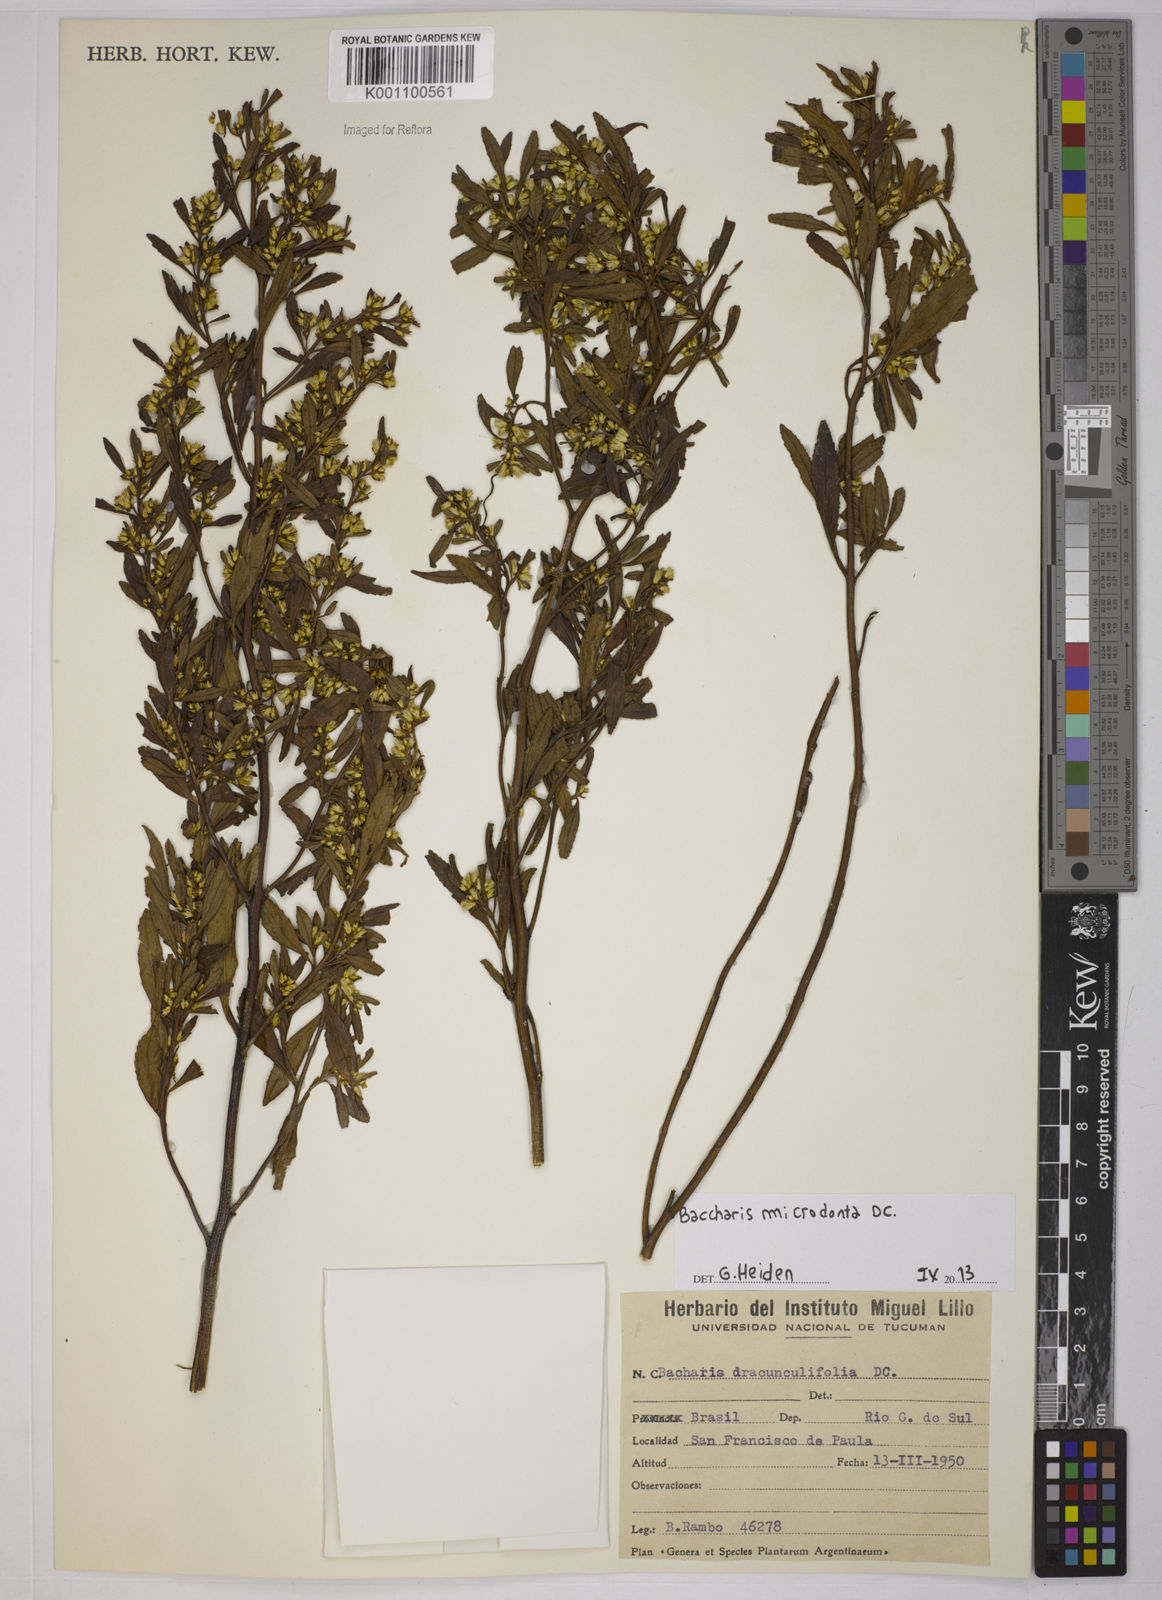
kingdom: Plantae
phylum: Tracheophyta
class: Magnoliopsida
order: Asterales
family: Asteraceae
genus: Baccharis
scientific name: Baccharis microdonta
